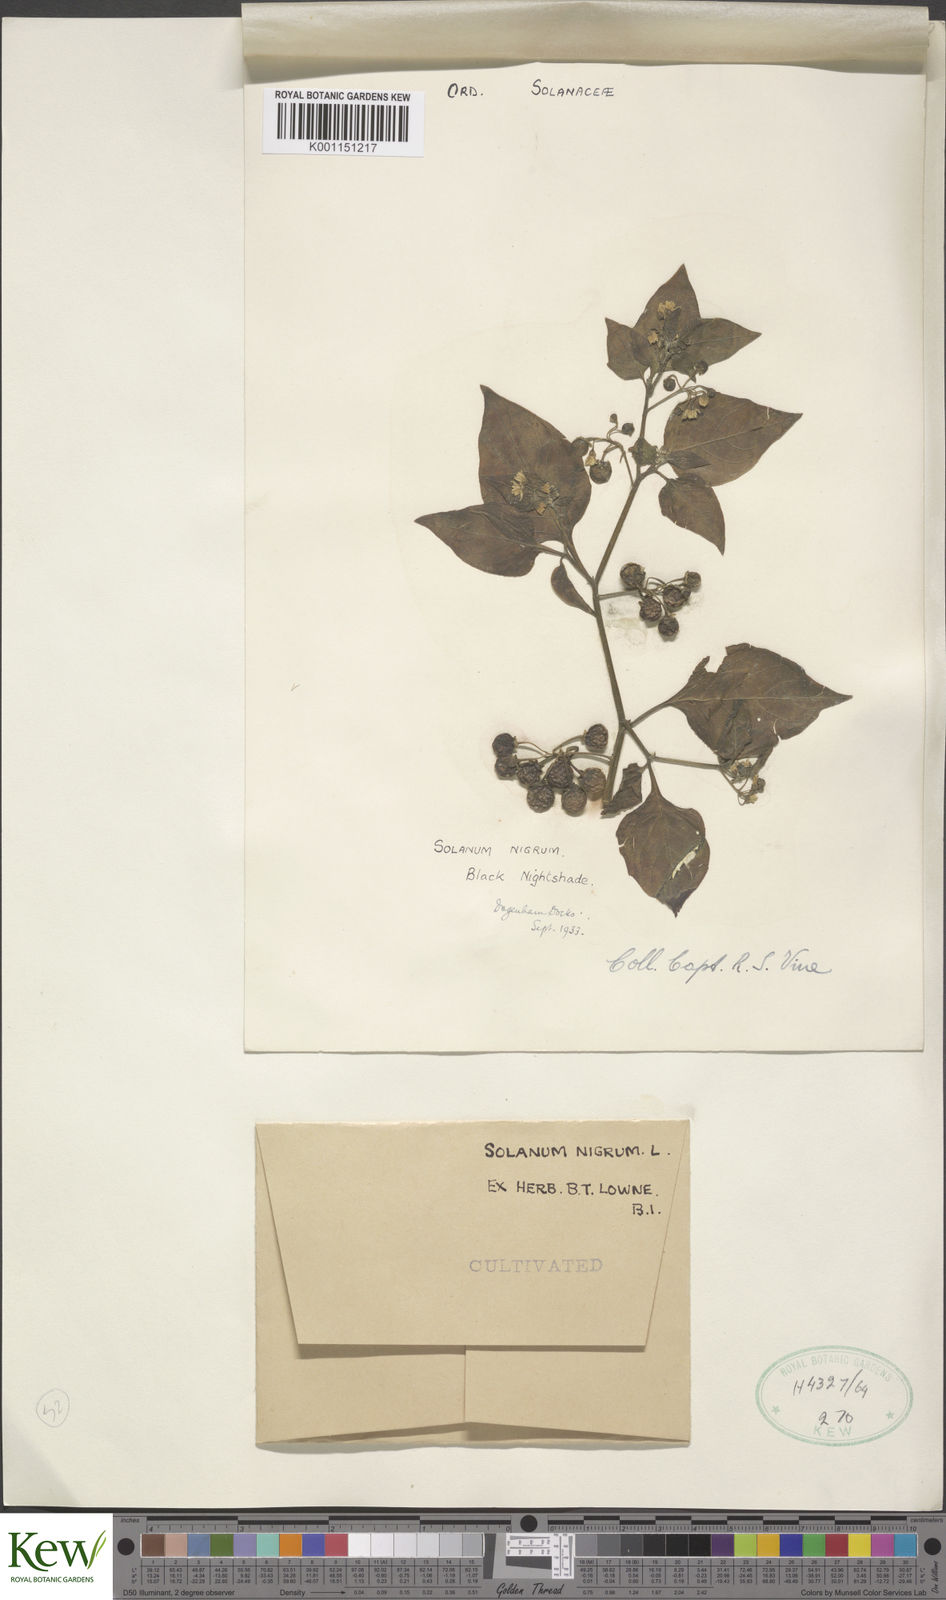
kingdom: Plantae
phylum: Tracheophyta
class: Magnoliopsida
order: Solanales
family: Solanaceae
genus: Solanum
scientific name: Solanum nigrum
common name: Black nightshade
